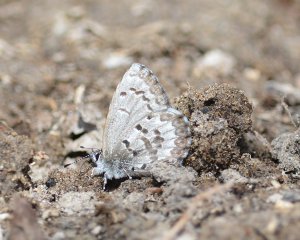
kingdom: Animalia
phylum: Arthropoda
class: Insecta
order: Lepidoptera
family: Lycaenidae
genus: Celastrina
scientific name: Celastrina lucia
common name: Northern Spring Azure
